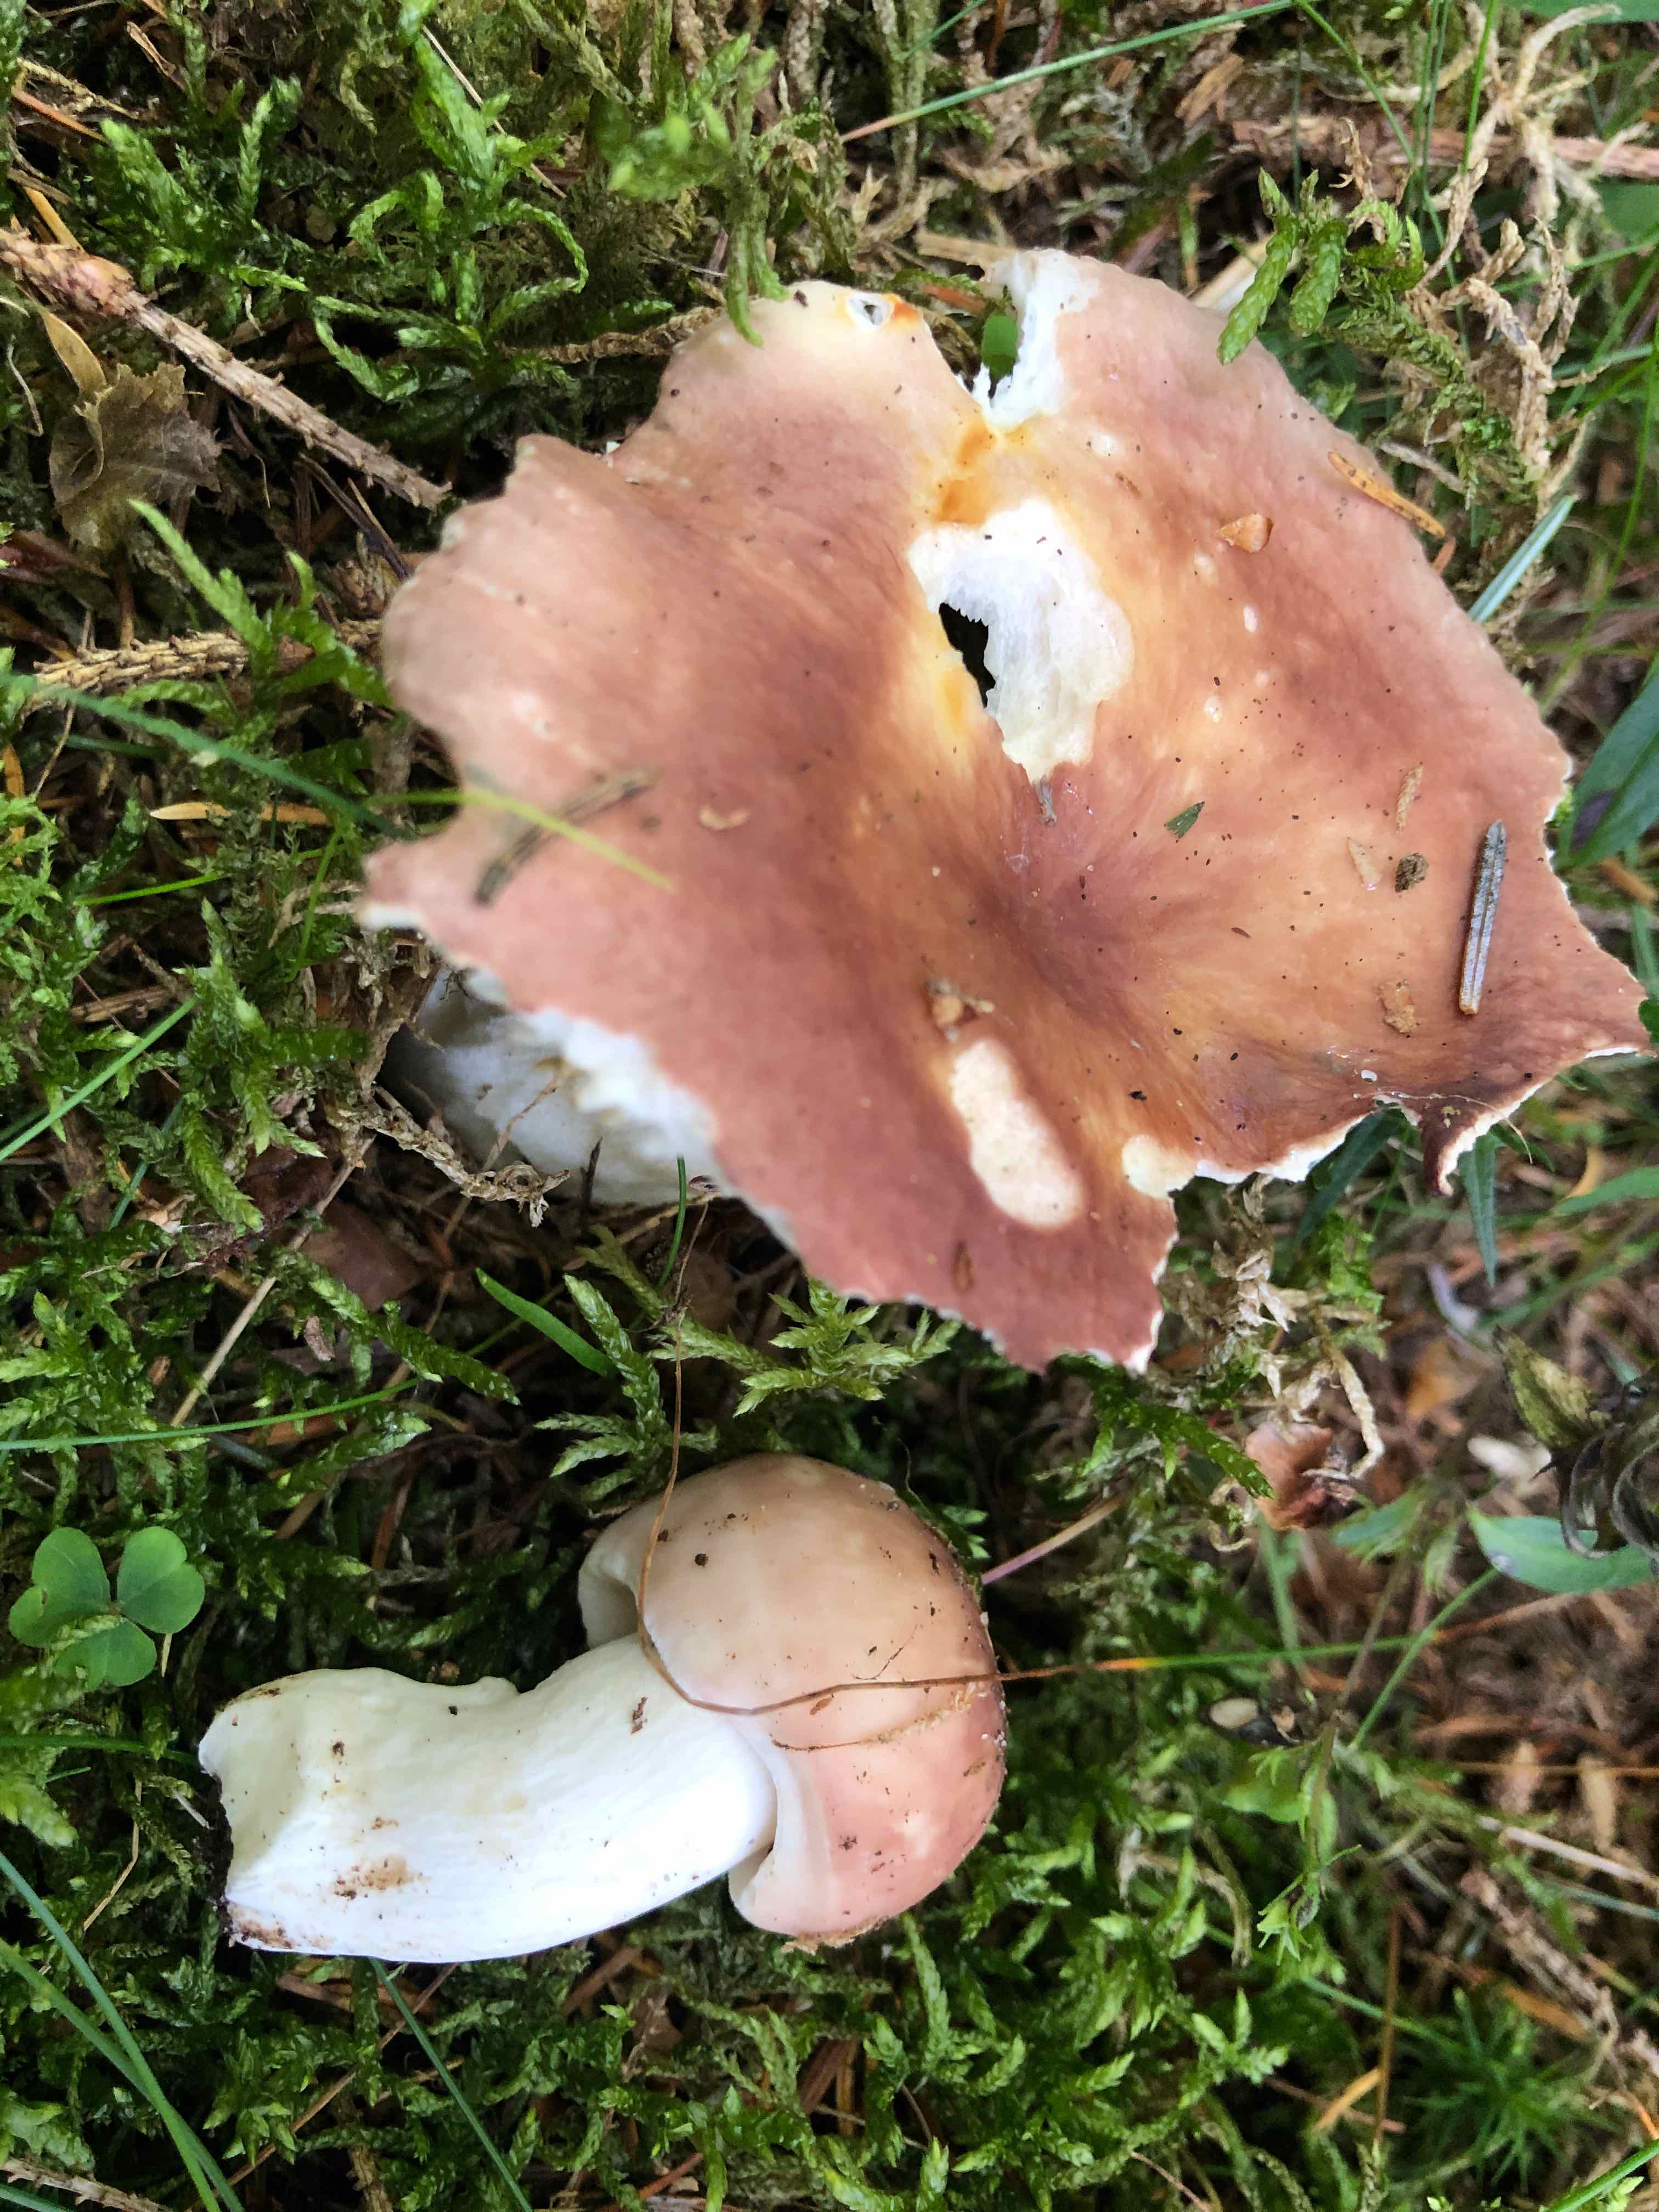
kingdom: Fungi
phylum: Basidiomycota
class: Agaricomycetes
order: Russulales
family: Russulaceae
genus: Russula
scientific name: Russula vesca
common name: spiselig skørhat
